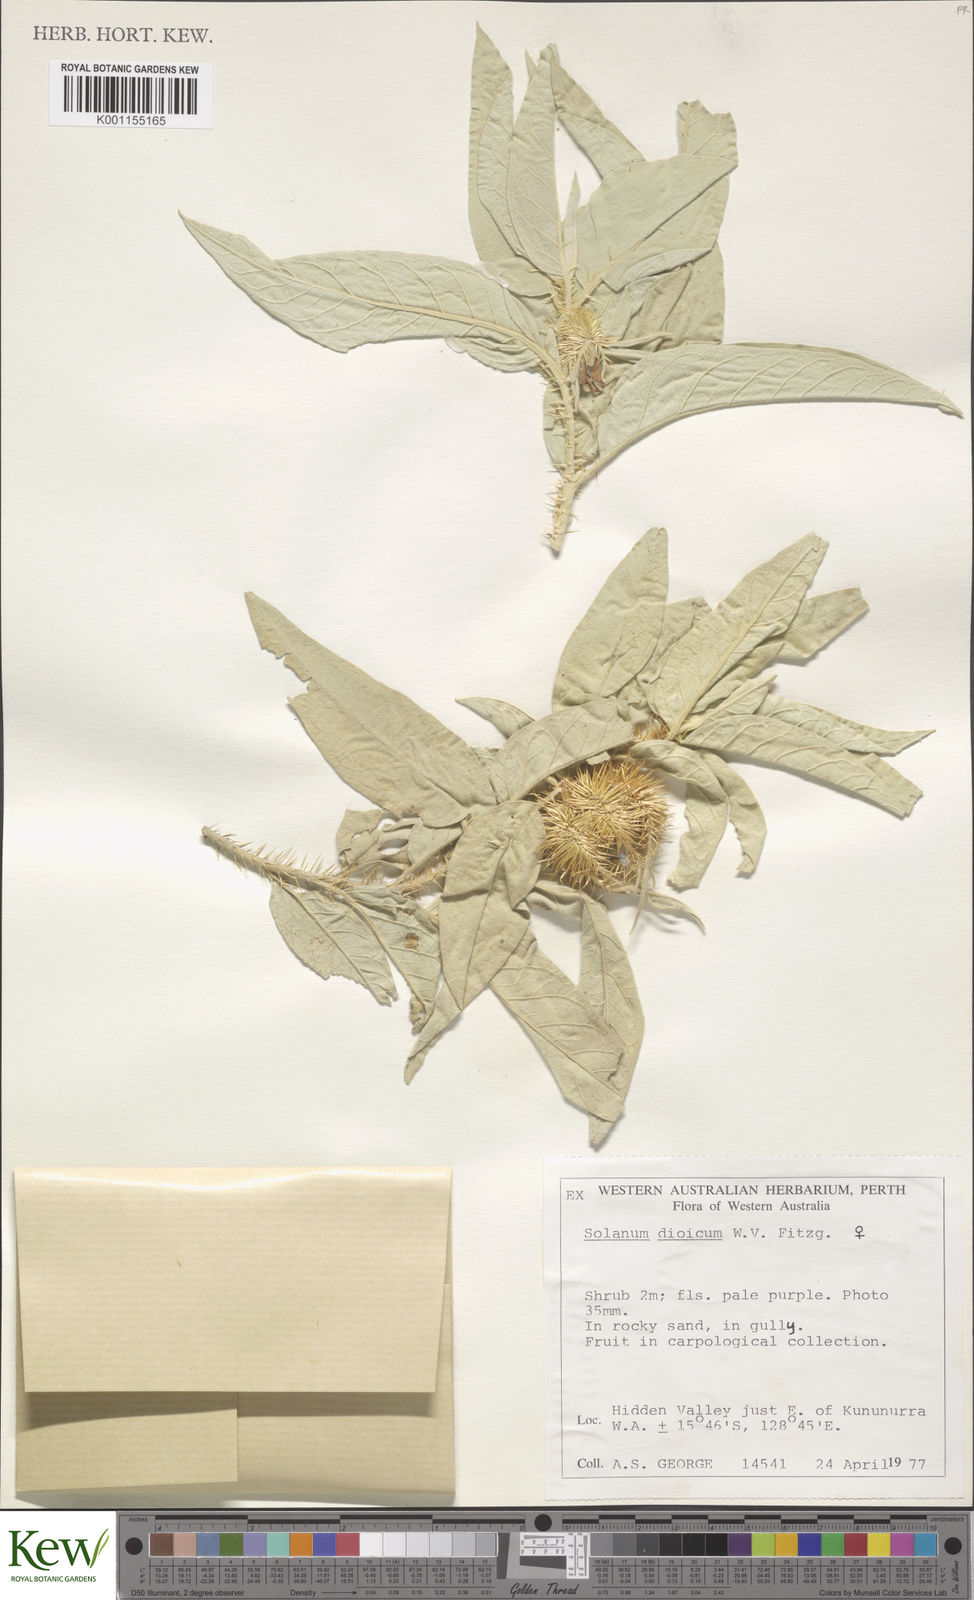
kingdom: Plantae
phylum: Tracheophyta
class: Magnoliopsida
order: Solanales
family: Solanaceae
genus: Solanum
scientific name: Solanum dioicum
